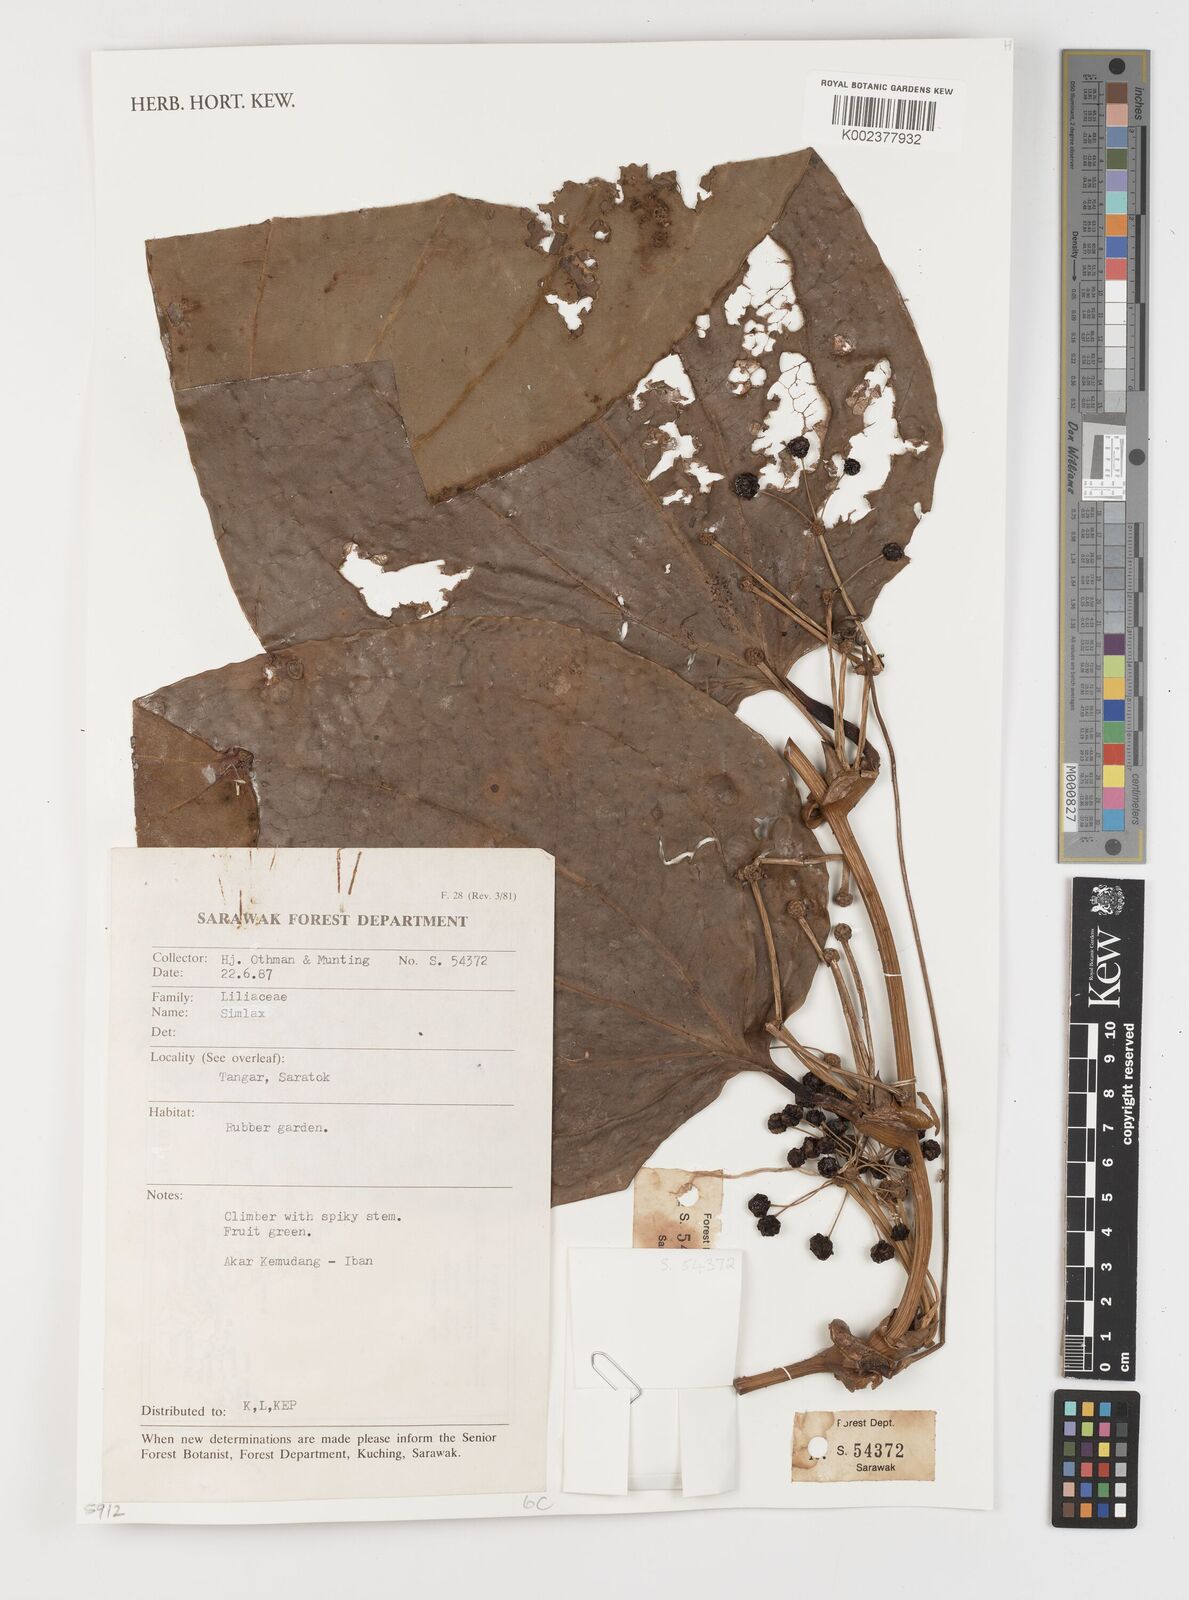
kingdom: Plantae
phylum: Tracheophyta
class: Liliopsida
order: Liliales
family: Smilacaceae
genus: Smilax
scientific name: Smilax
